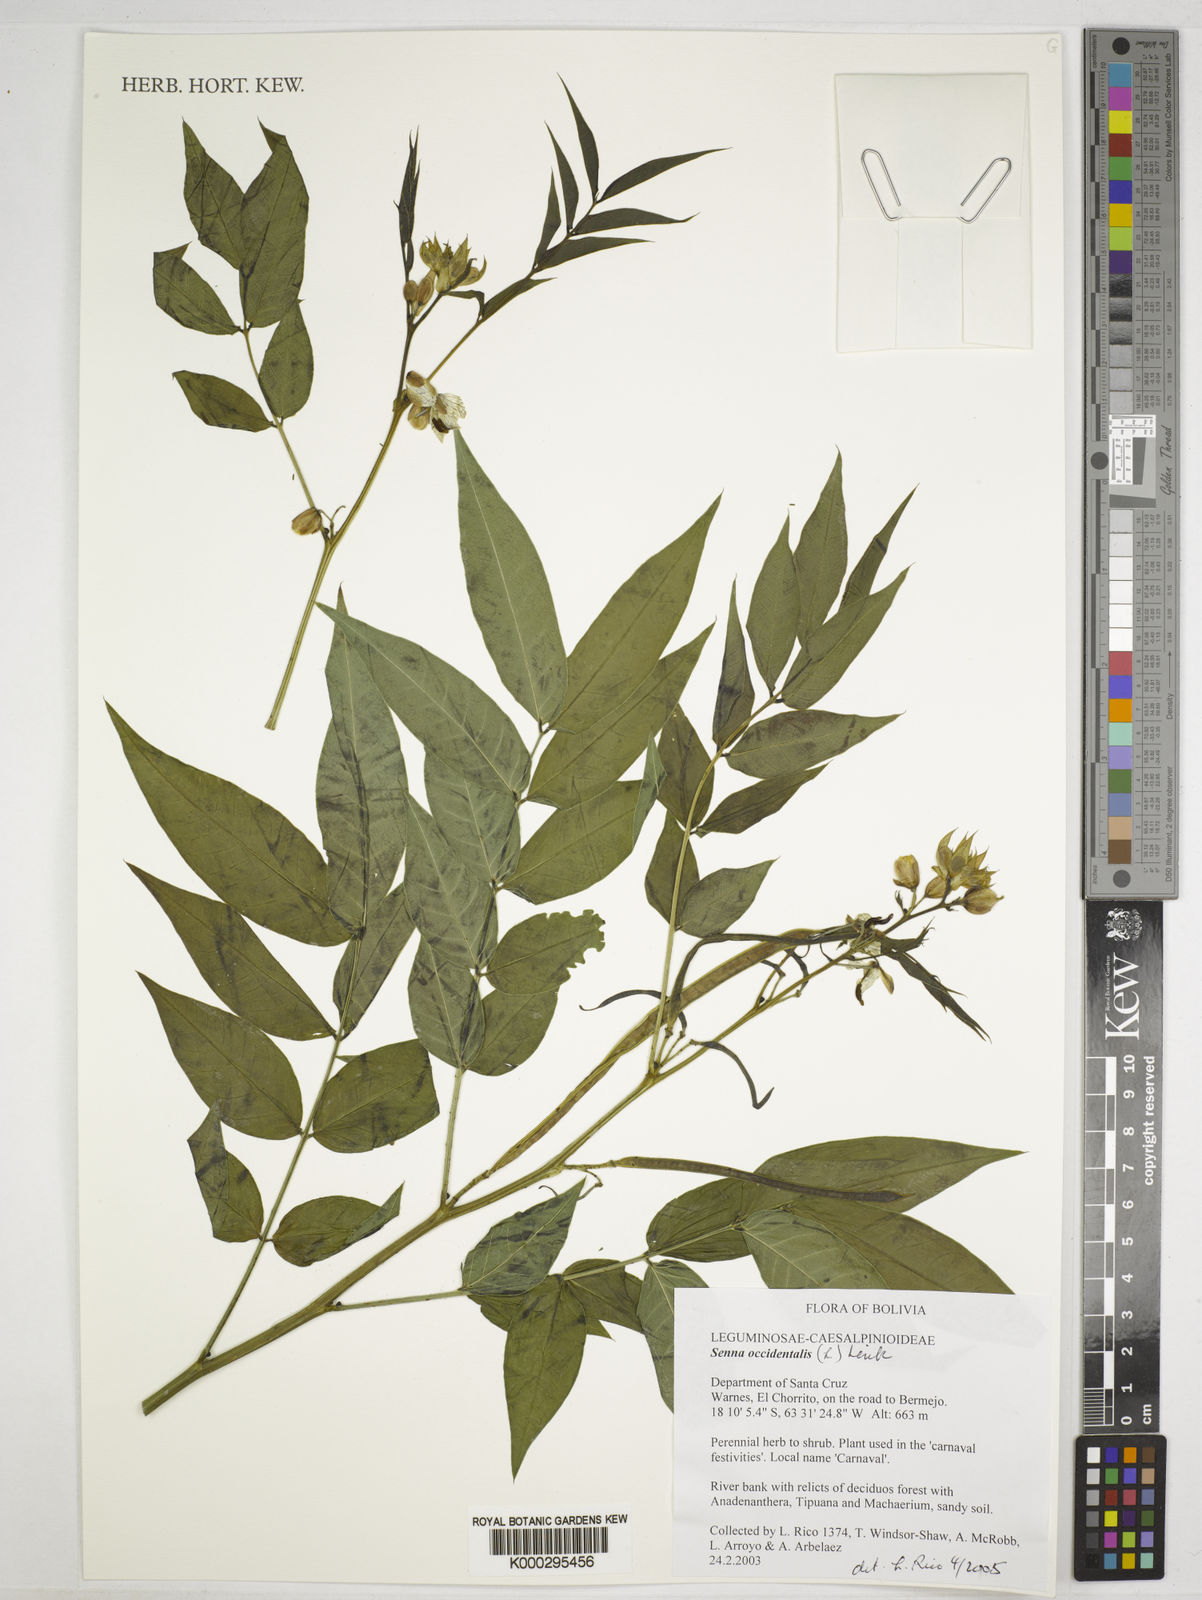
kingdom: Plantae
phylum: Tracheophyta
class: Magnoliopsida
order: Fabales
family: Fabaceae
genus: Senna
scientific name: Senna occidentalis
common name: Septicweed
